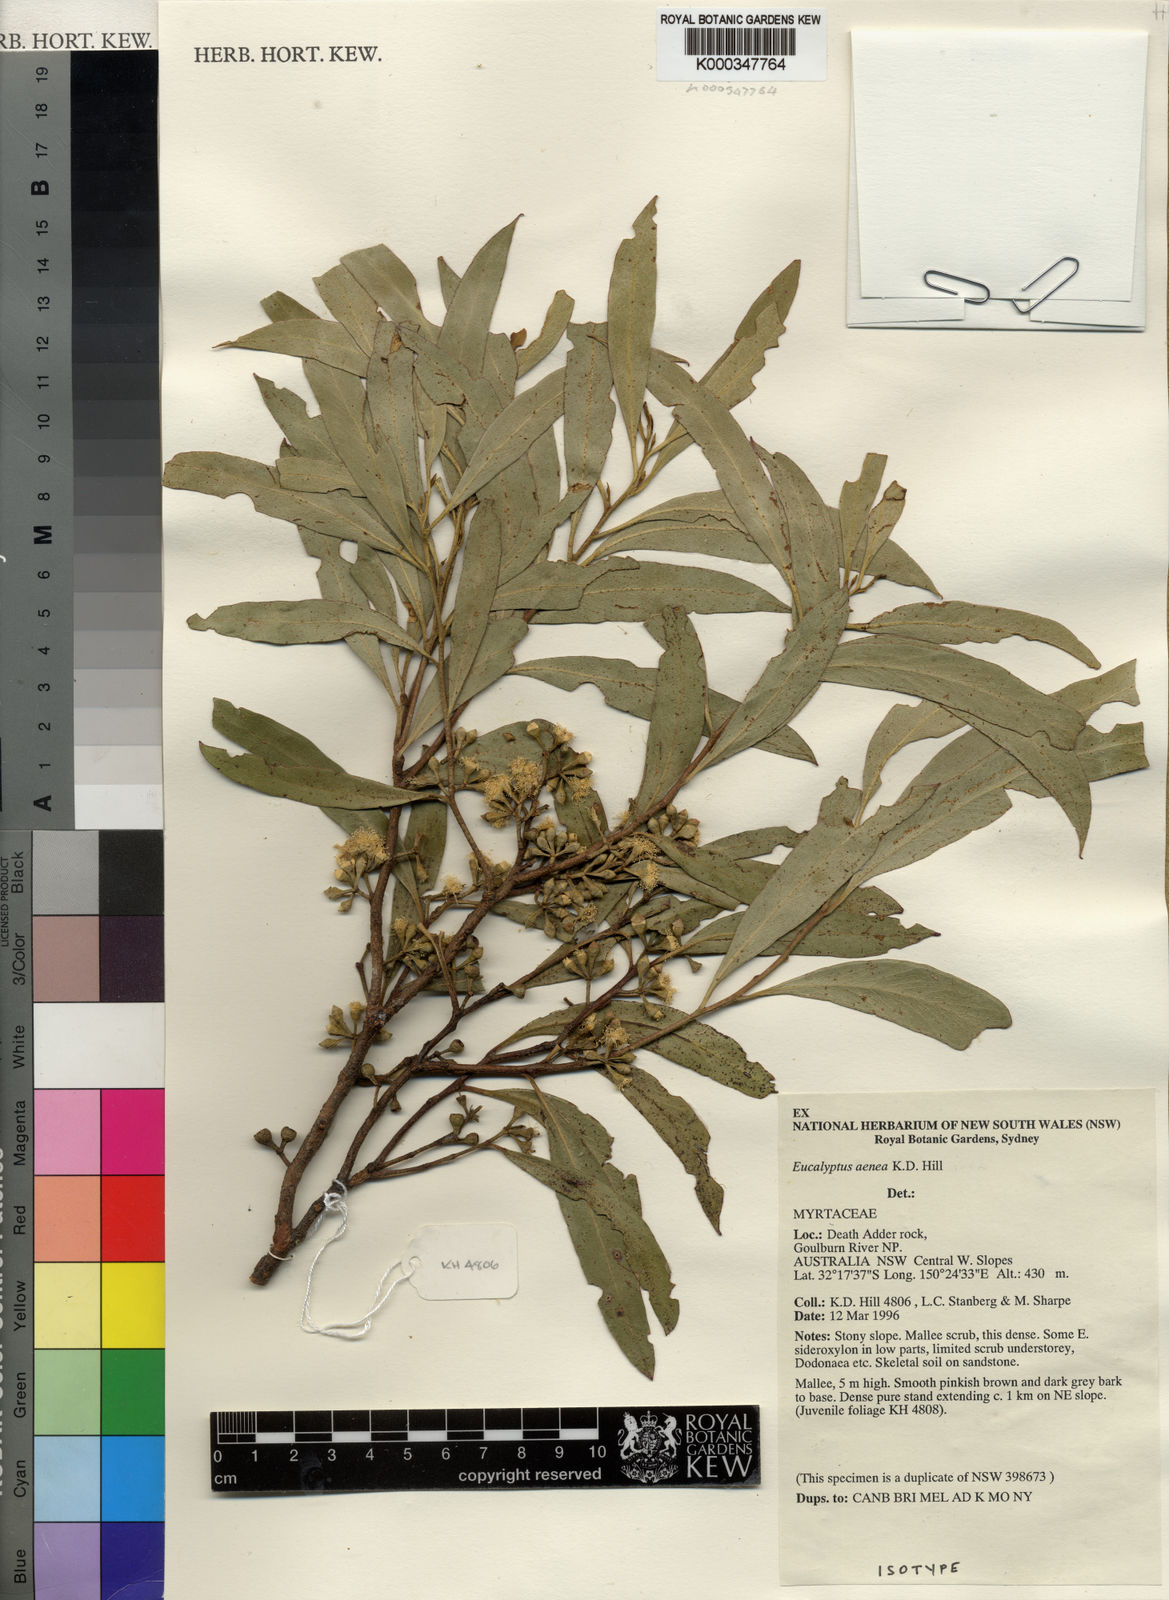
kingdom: Plantae
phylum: Tracheophyta
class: Magnoliopsida
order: Myrtales
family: Myrtaceae
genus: Eucalyptus
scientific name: Eucalyptus aenea
